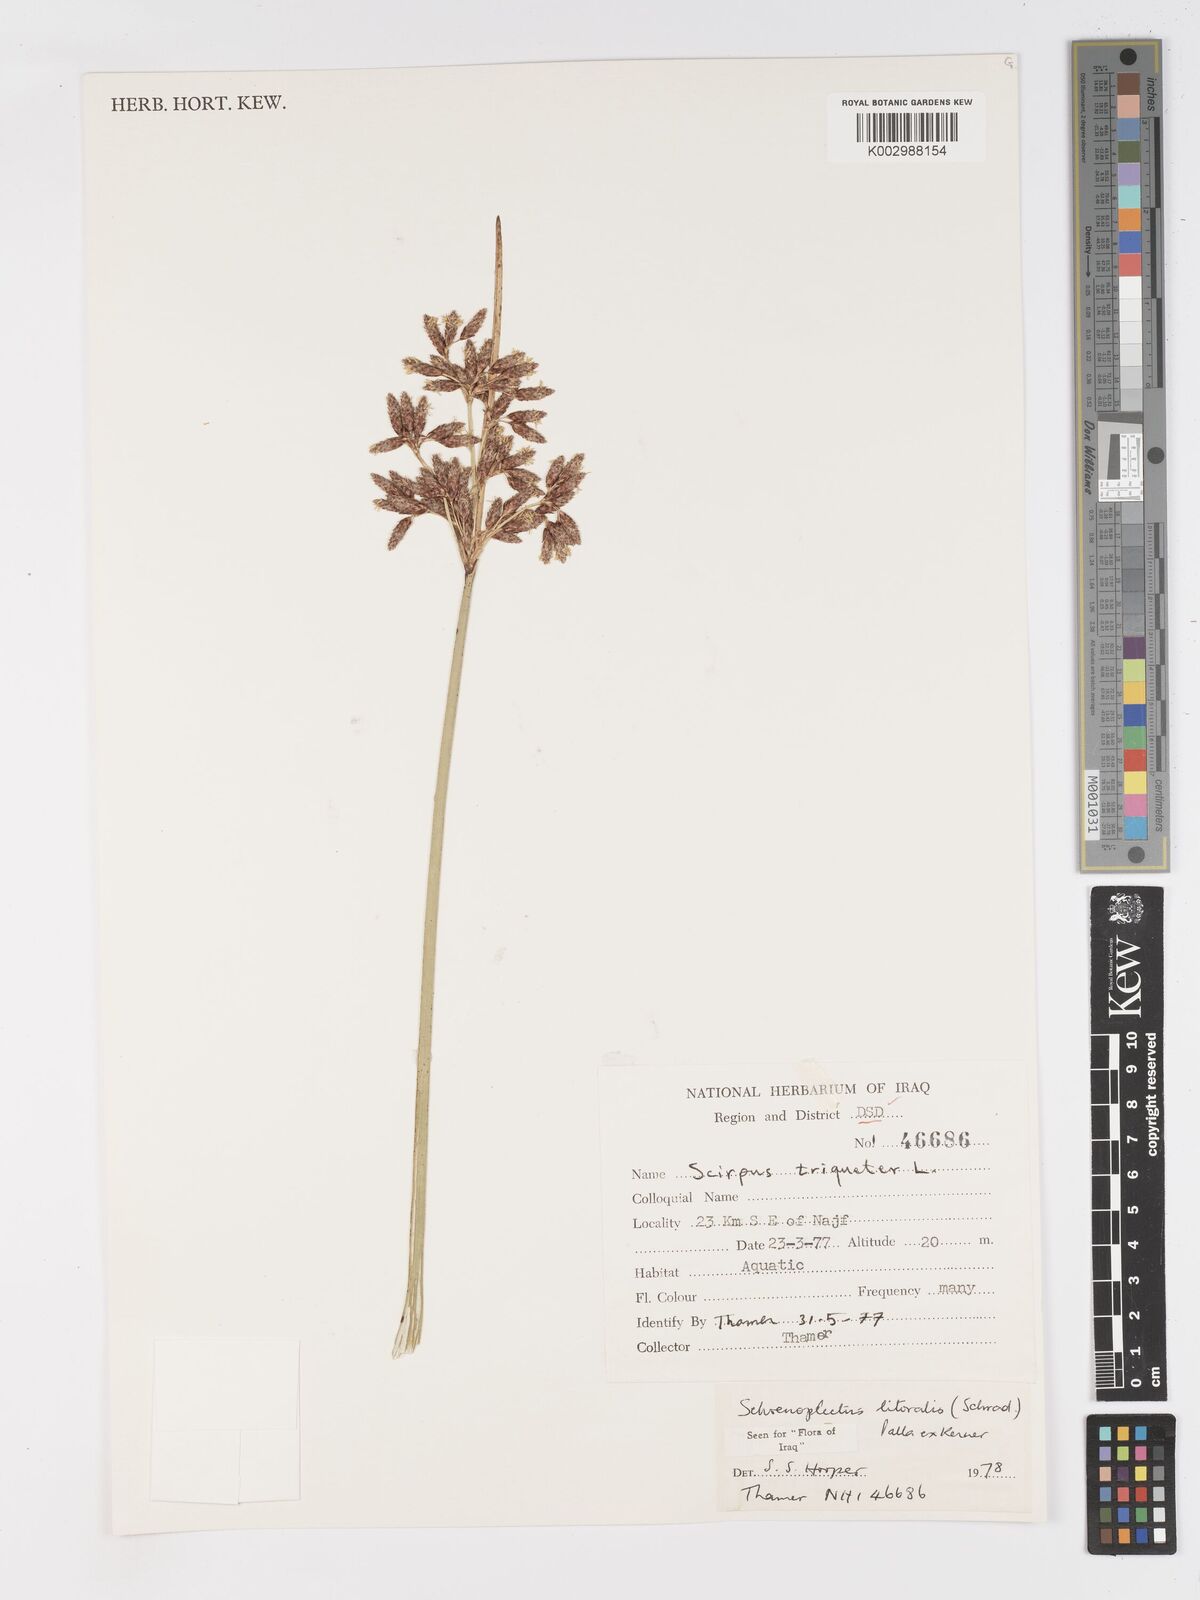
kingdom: Plantae
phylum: Tracheophyta
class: Liliopsida
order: Poales
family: Cyperaceae
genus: Schoenoplectus
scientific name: Schoenoplectus litoralis
